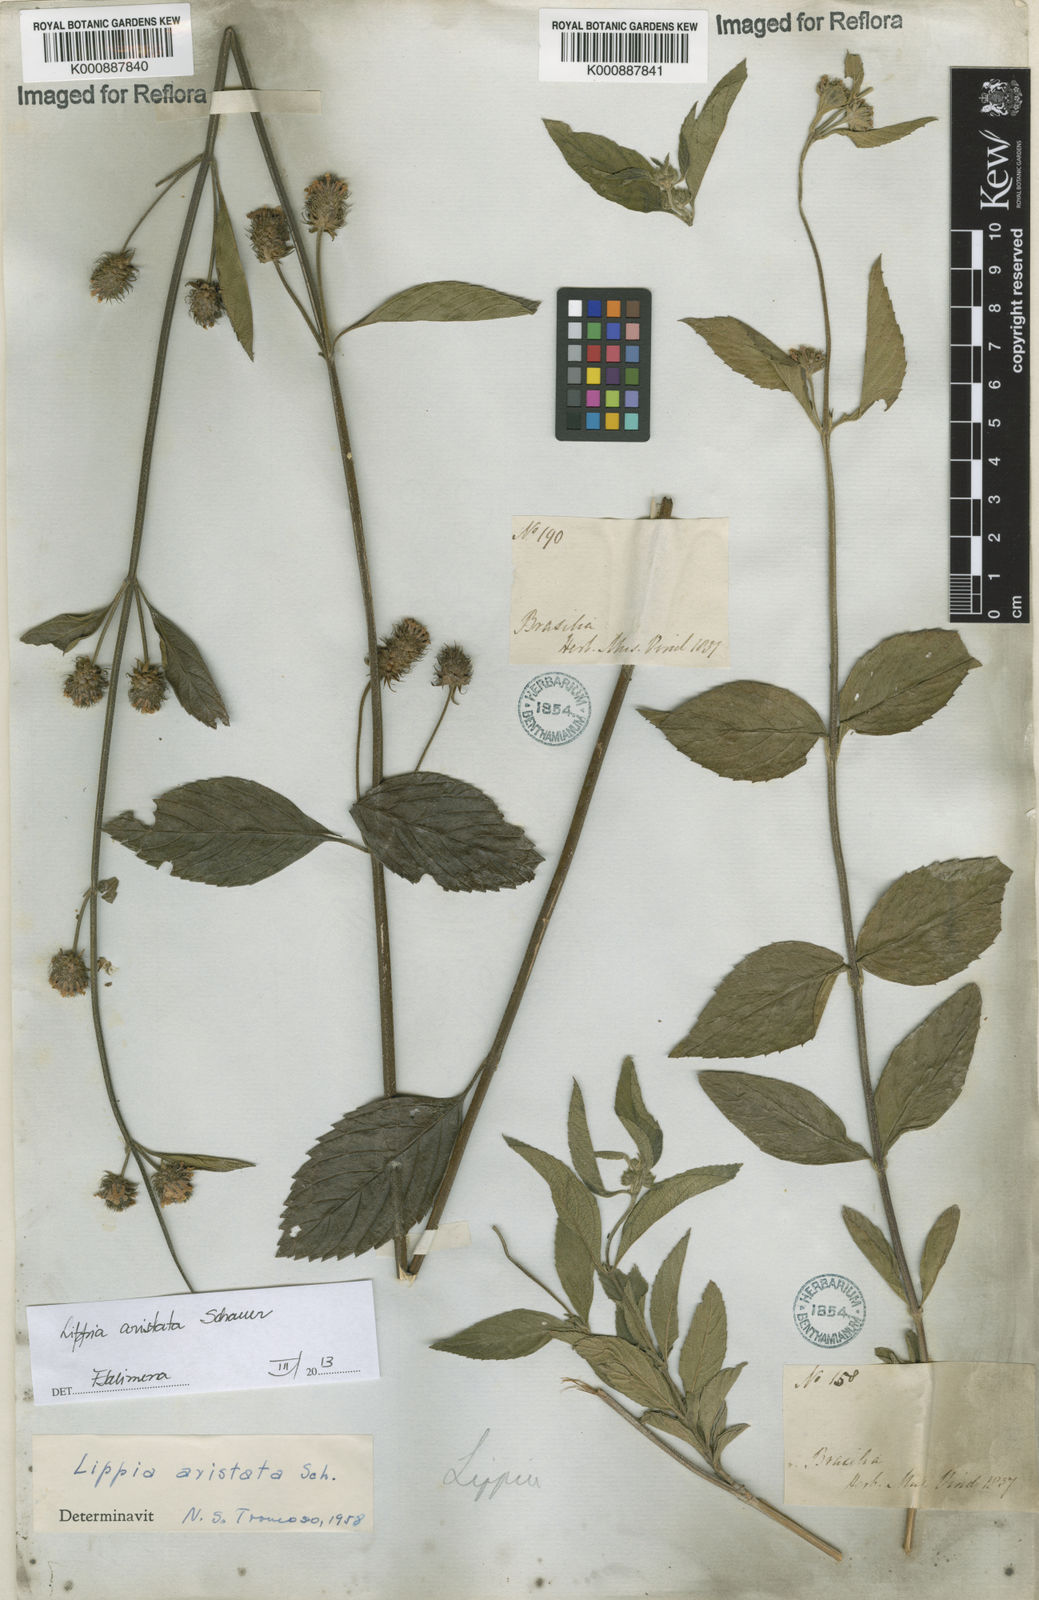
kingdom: Plantae
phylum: Tracheophyta
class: Magnoliopsida
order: Lamiales
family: Verbenaceae
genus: Lippia
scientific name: Lippia aristata
